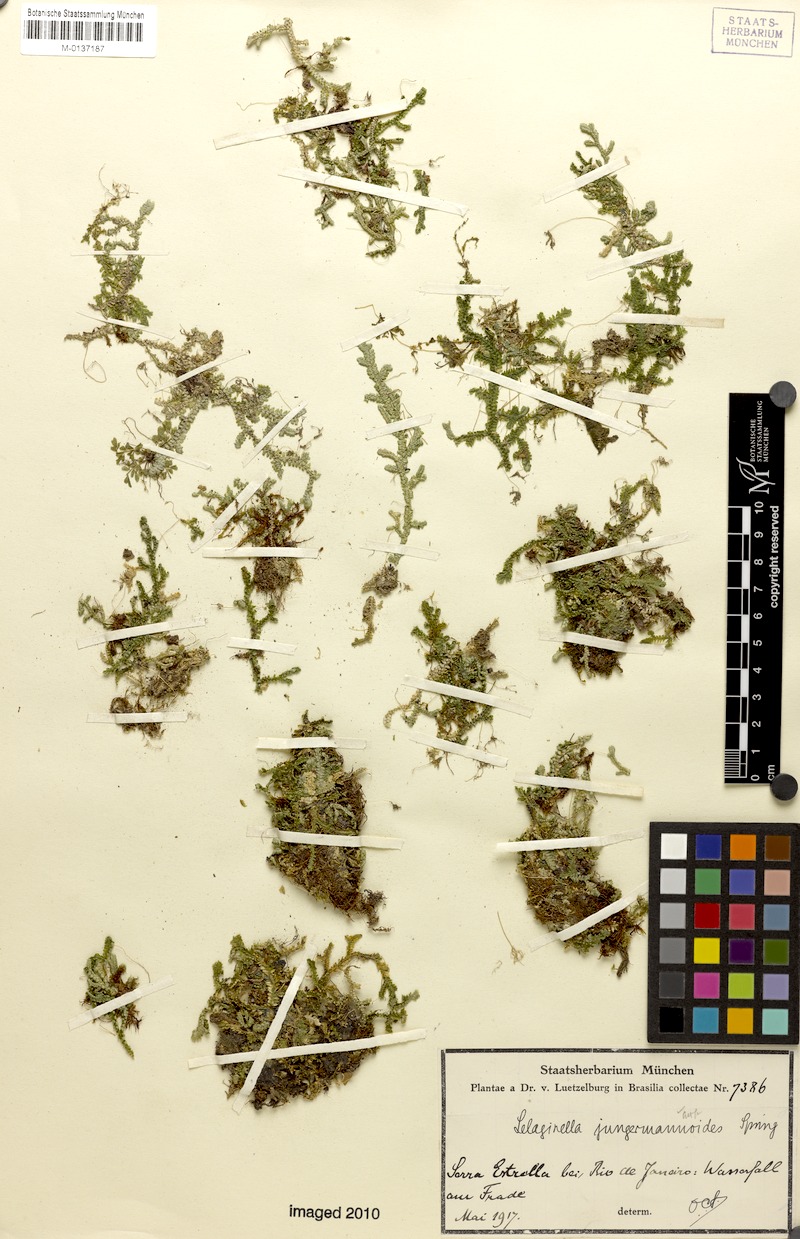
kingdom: Plantae
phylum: Tracheophyta
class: Lycopodiopsida
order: Selaginellales
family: Selaginellaceae
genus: Selaginella
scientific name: Selaginella jungermannioides
